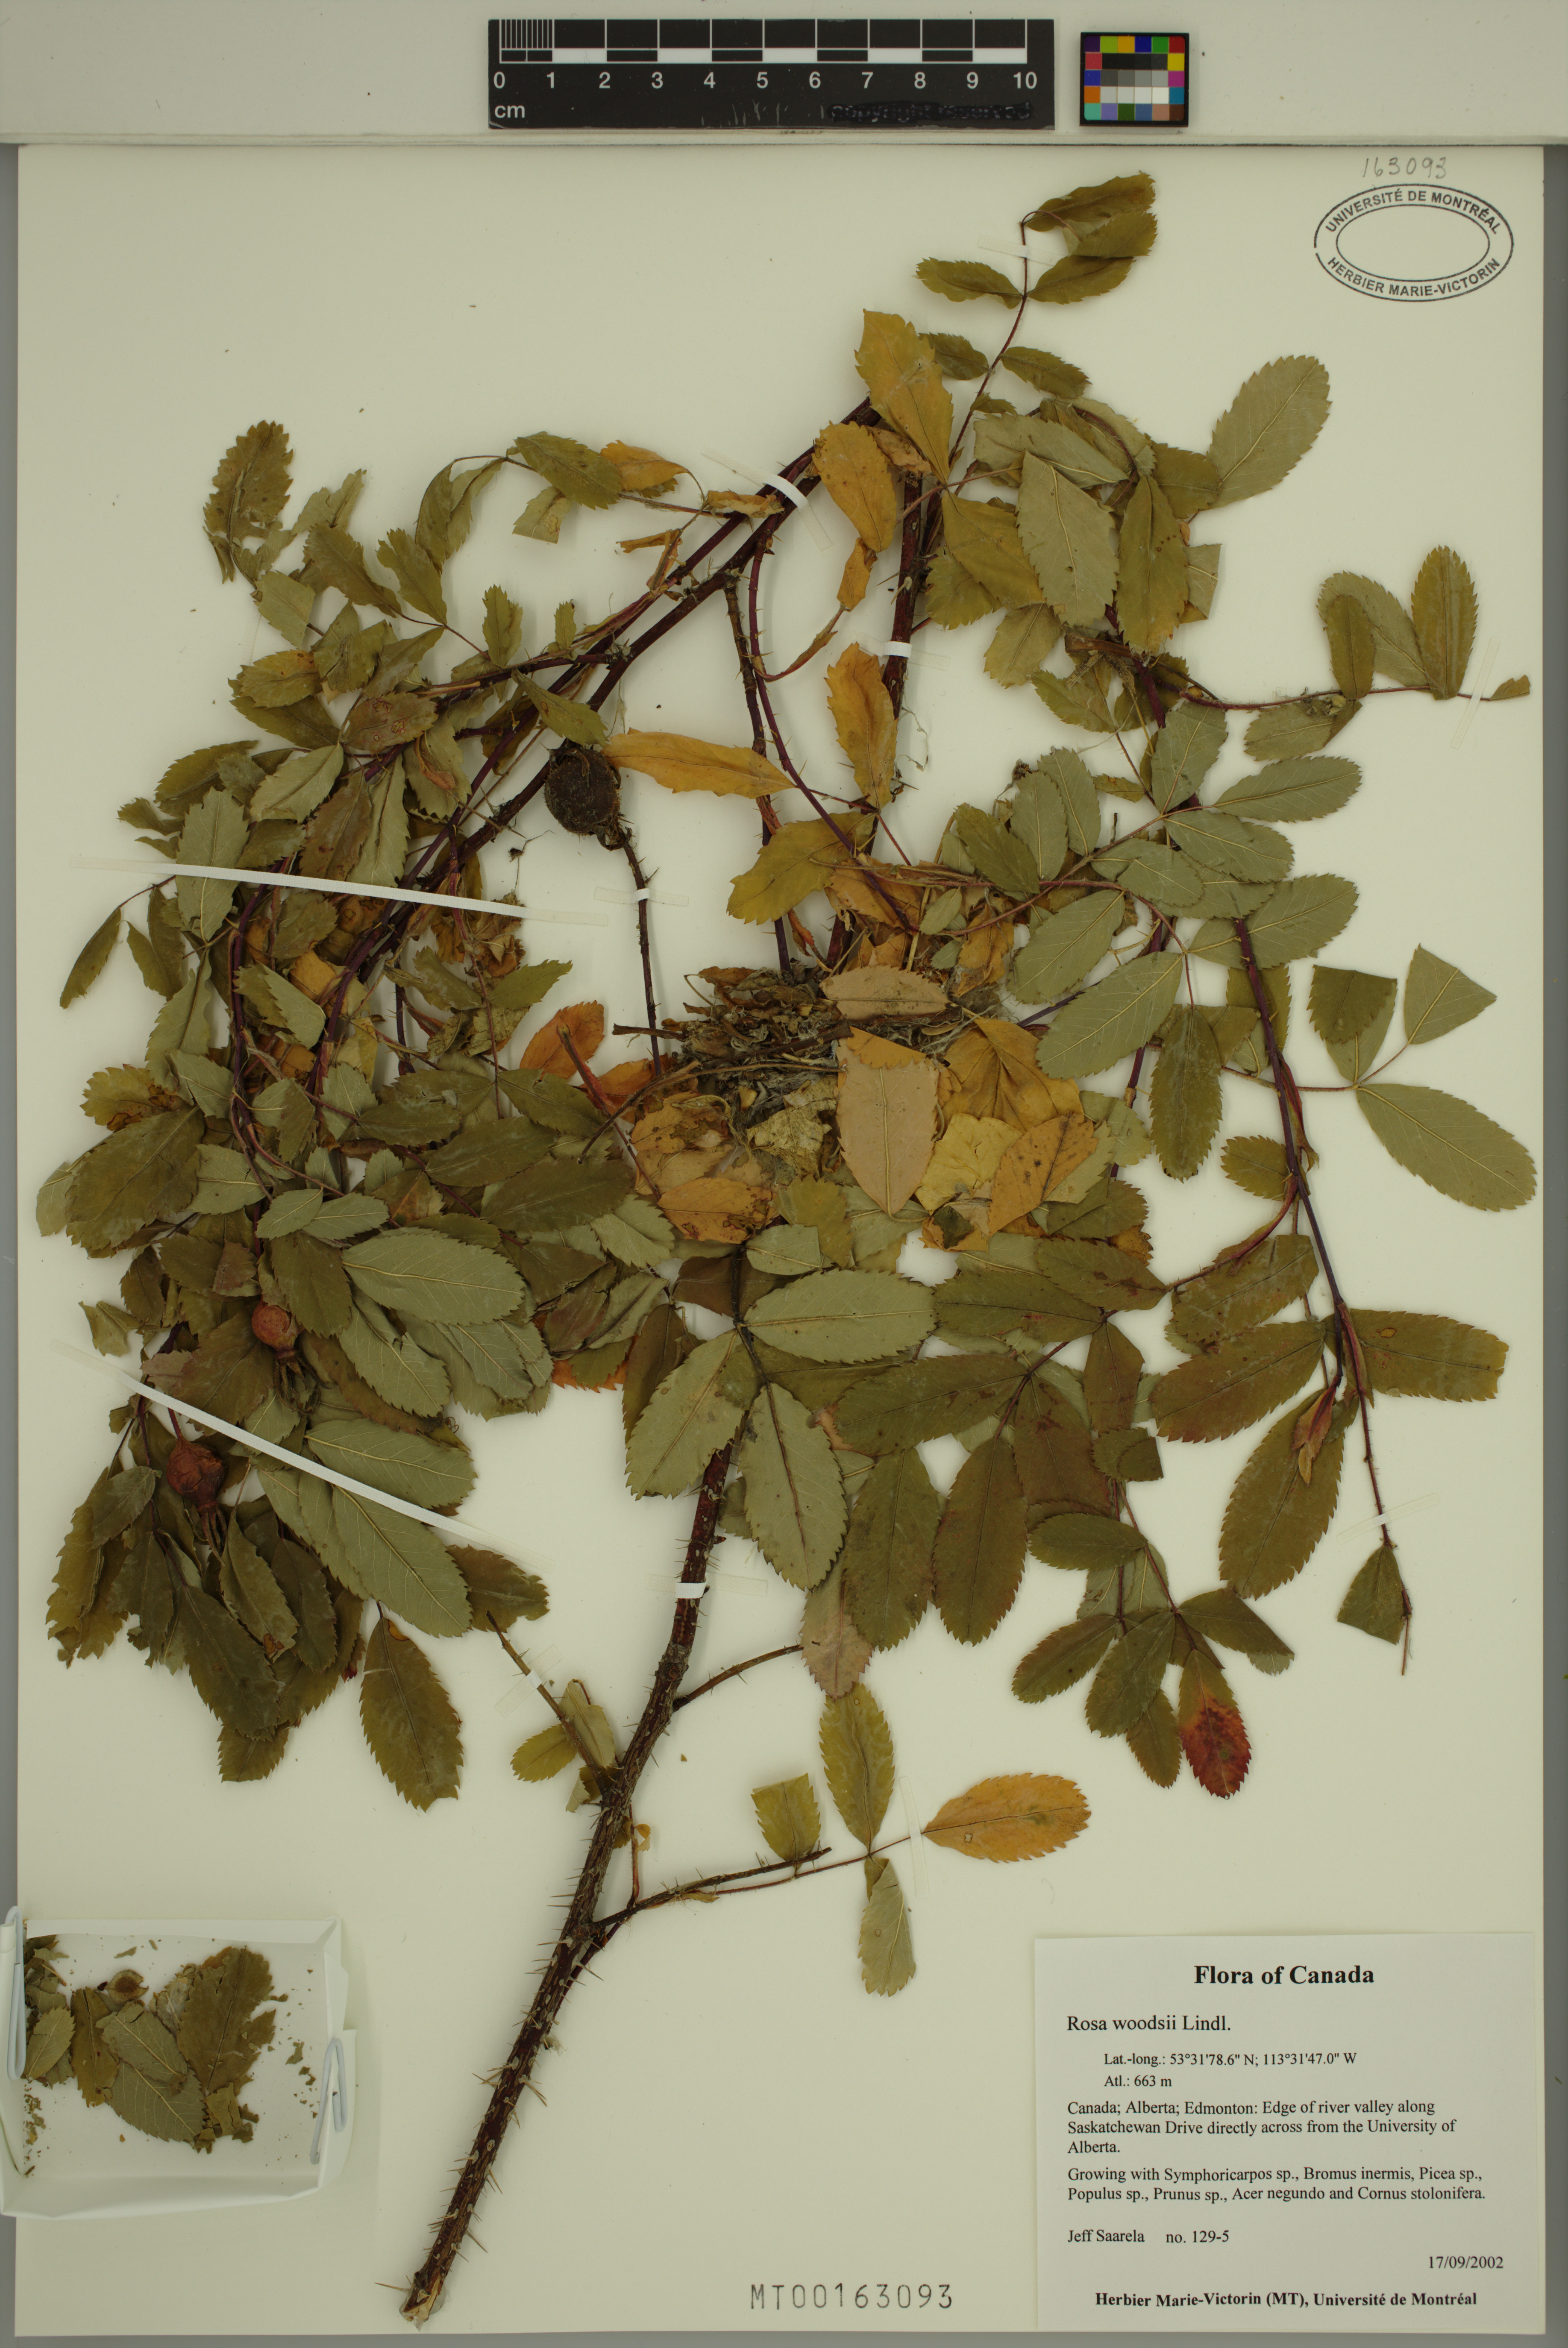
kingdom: Plantae
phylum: Tracheophyta
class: Magnoliopsida
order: Rosales
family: Rosaceae
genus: Rosa
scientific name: Rosa woodsii
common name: Woods's rose
